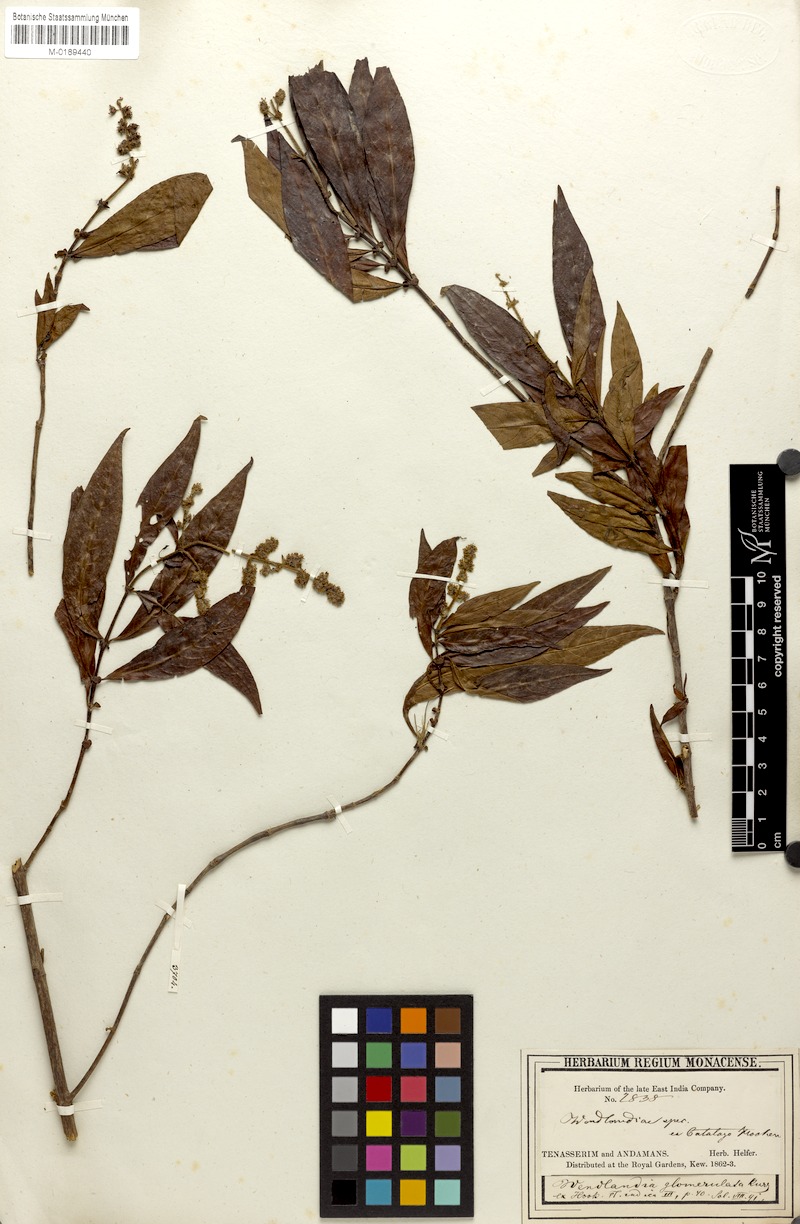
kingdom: Plantae
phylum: Tracheophyta
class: Magnoliopsida
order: Gentianales
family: Rubiaceae
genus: Wendlandia
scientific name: Wendlandia glomerulata
